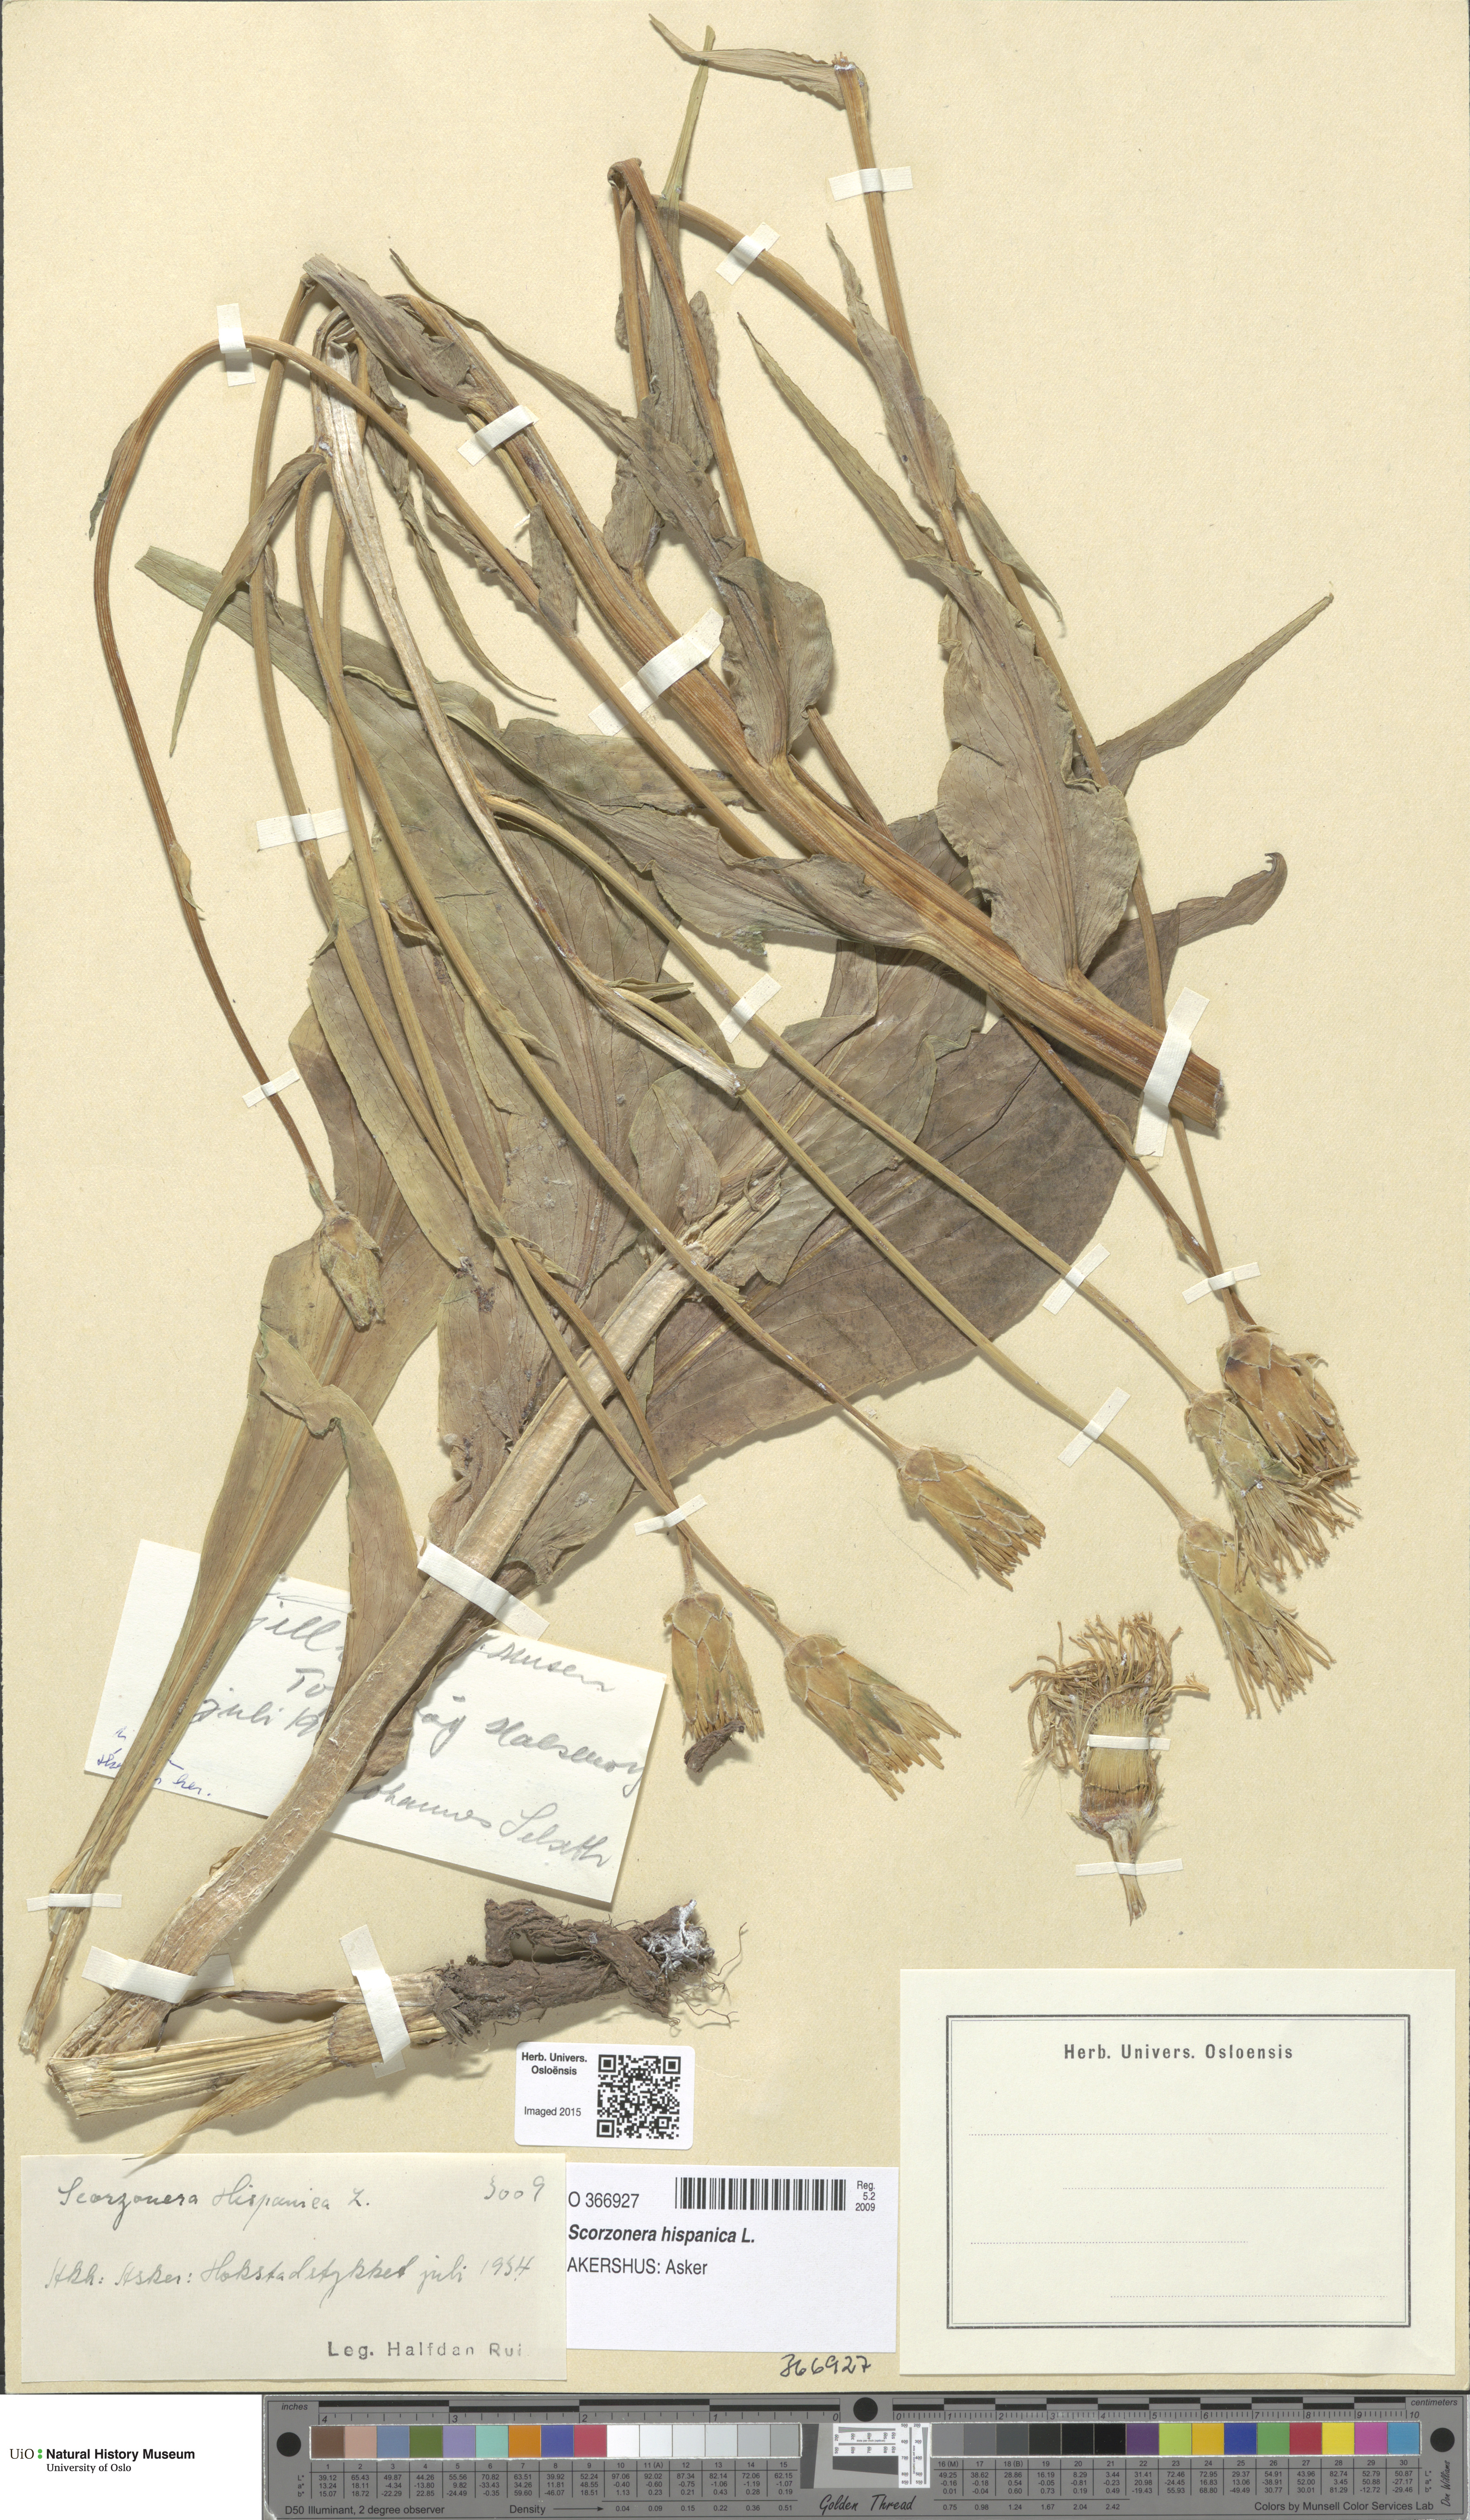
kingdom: Plantae
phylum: Tracheophyta
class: Magnoliopsida
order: Asterales
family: Asteraceae
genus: Pseudopodospermum
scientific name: Pseudopodospermum hispanicum
